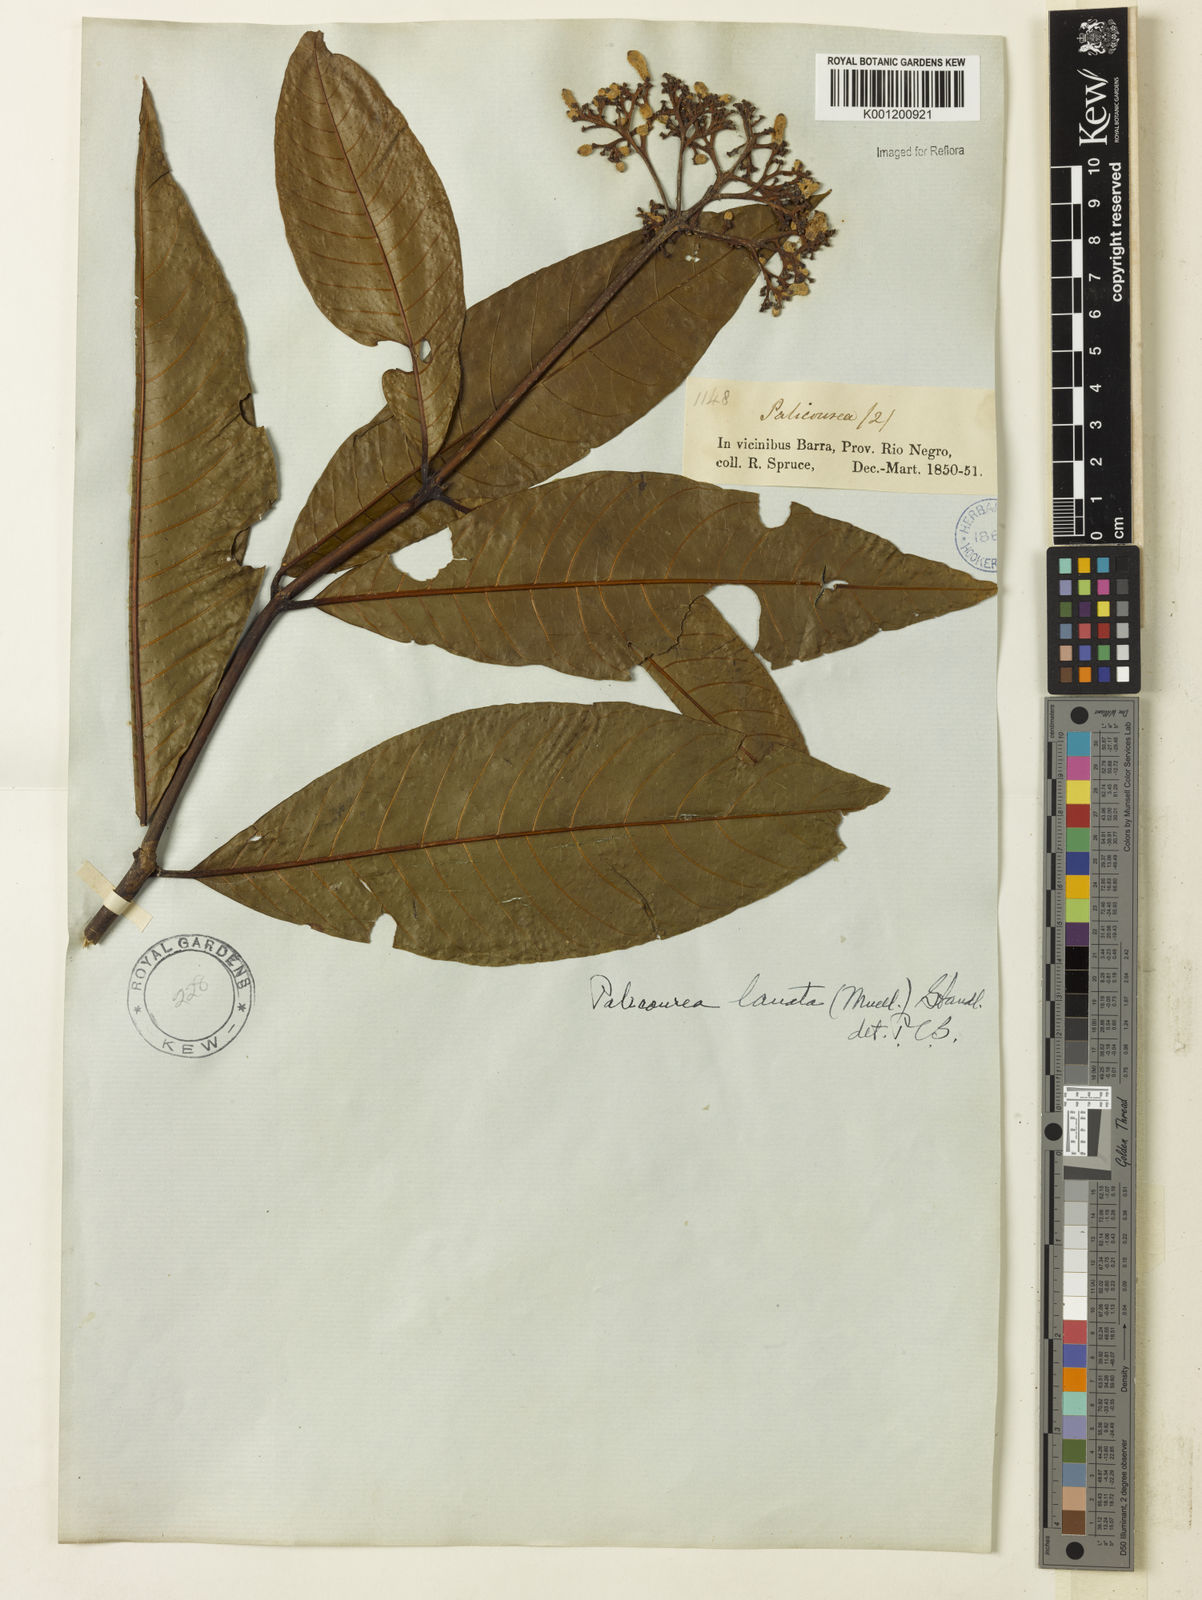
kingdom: Plantae
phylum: Tracheophyta
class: Magnoliopsida
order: Gentianales
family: Rubiaceae
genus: Palicourea
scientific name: Palicourea
